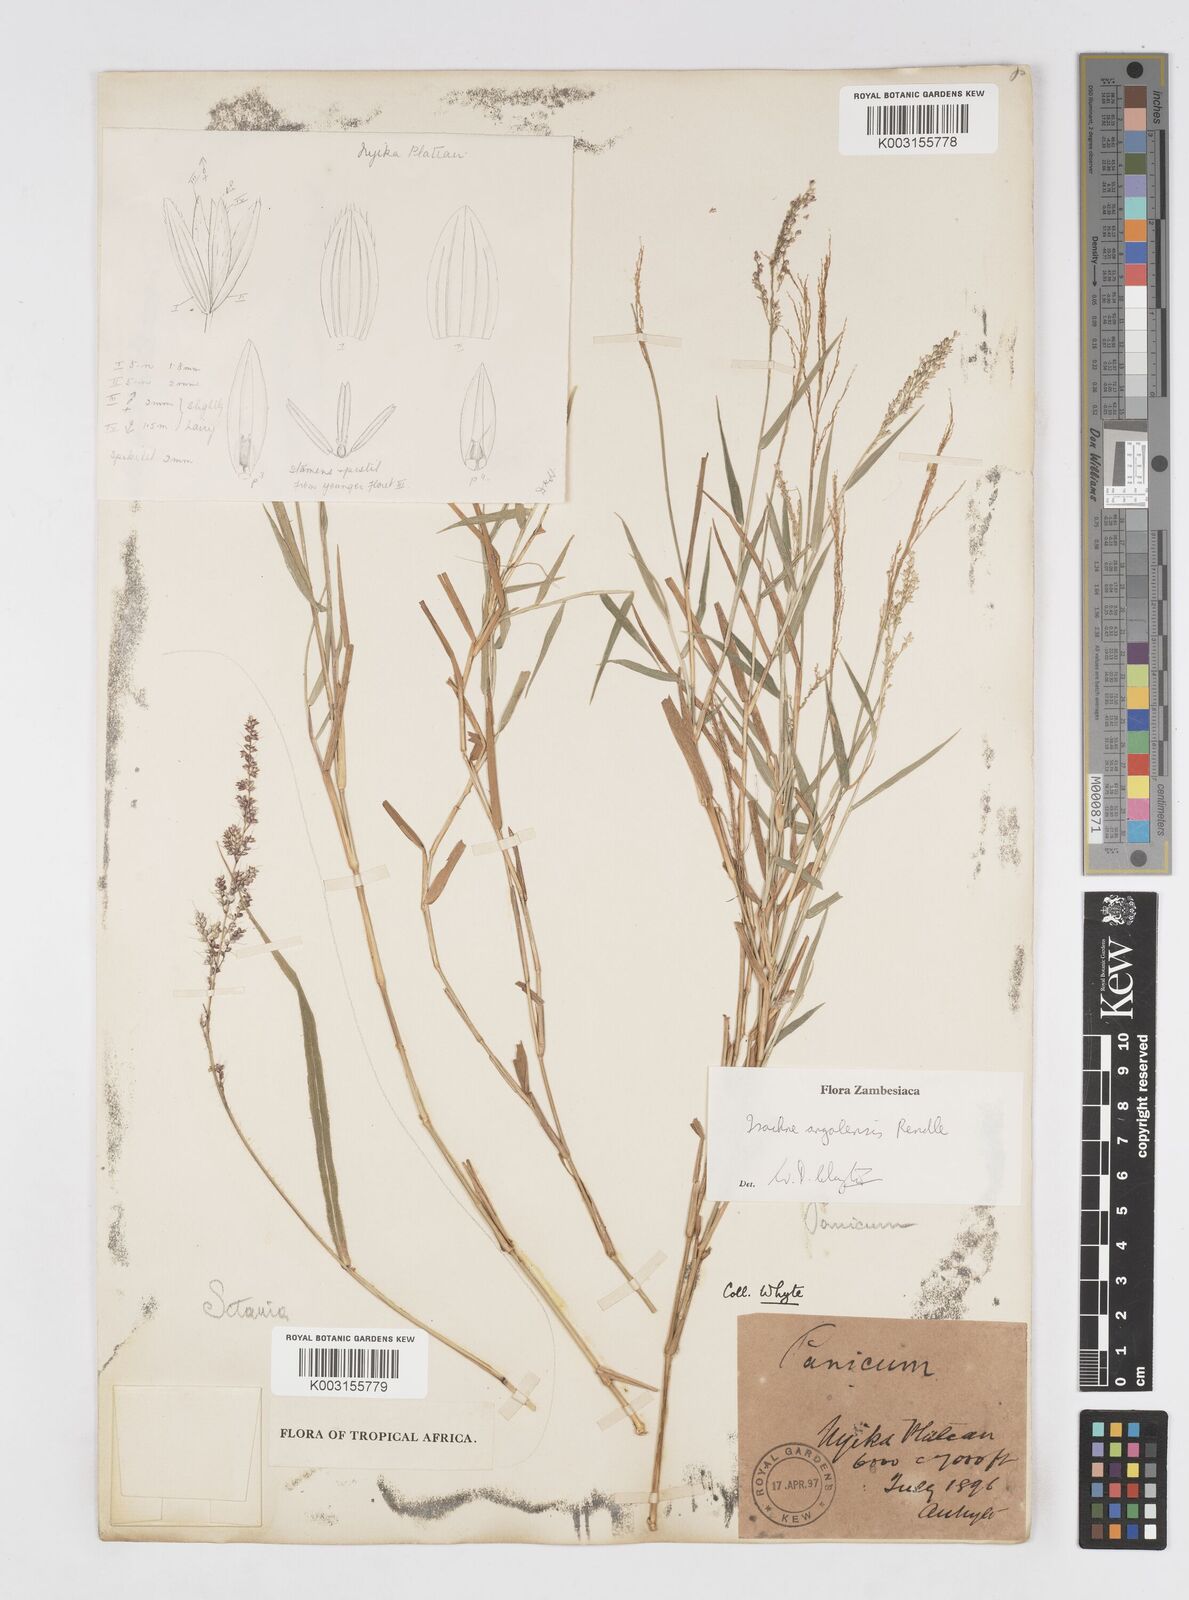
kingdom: Plantae
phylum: Tracheophyta
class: Liliopsida
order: Poales
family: Poaceae
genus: Isachne
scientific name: Isachne angolensis
